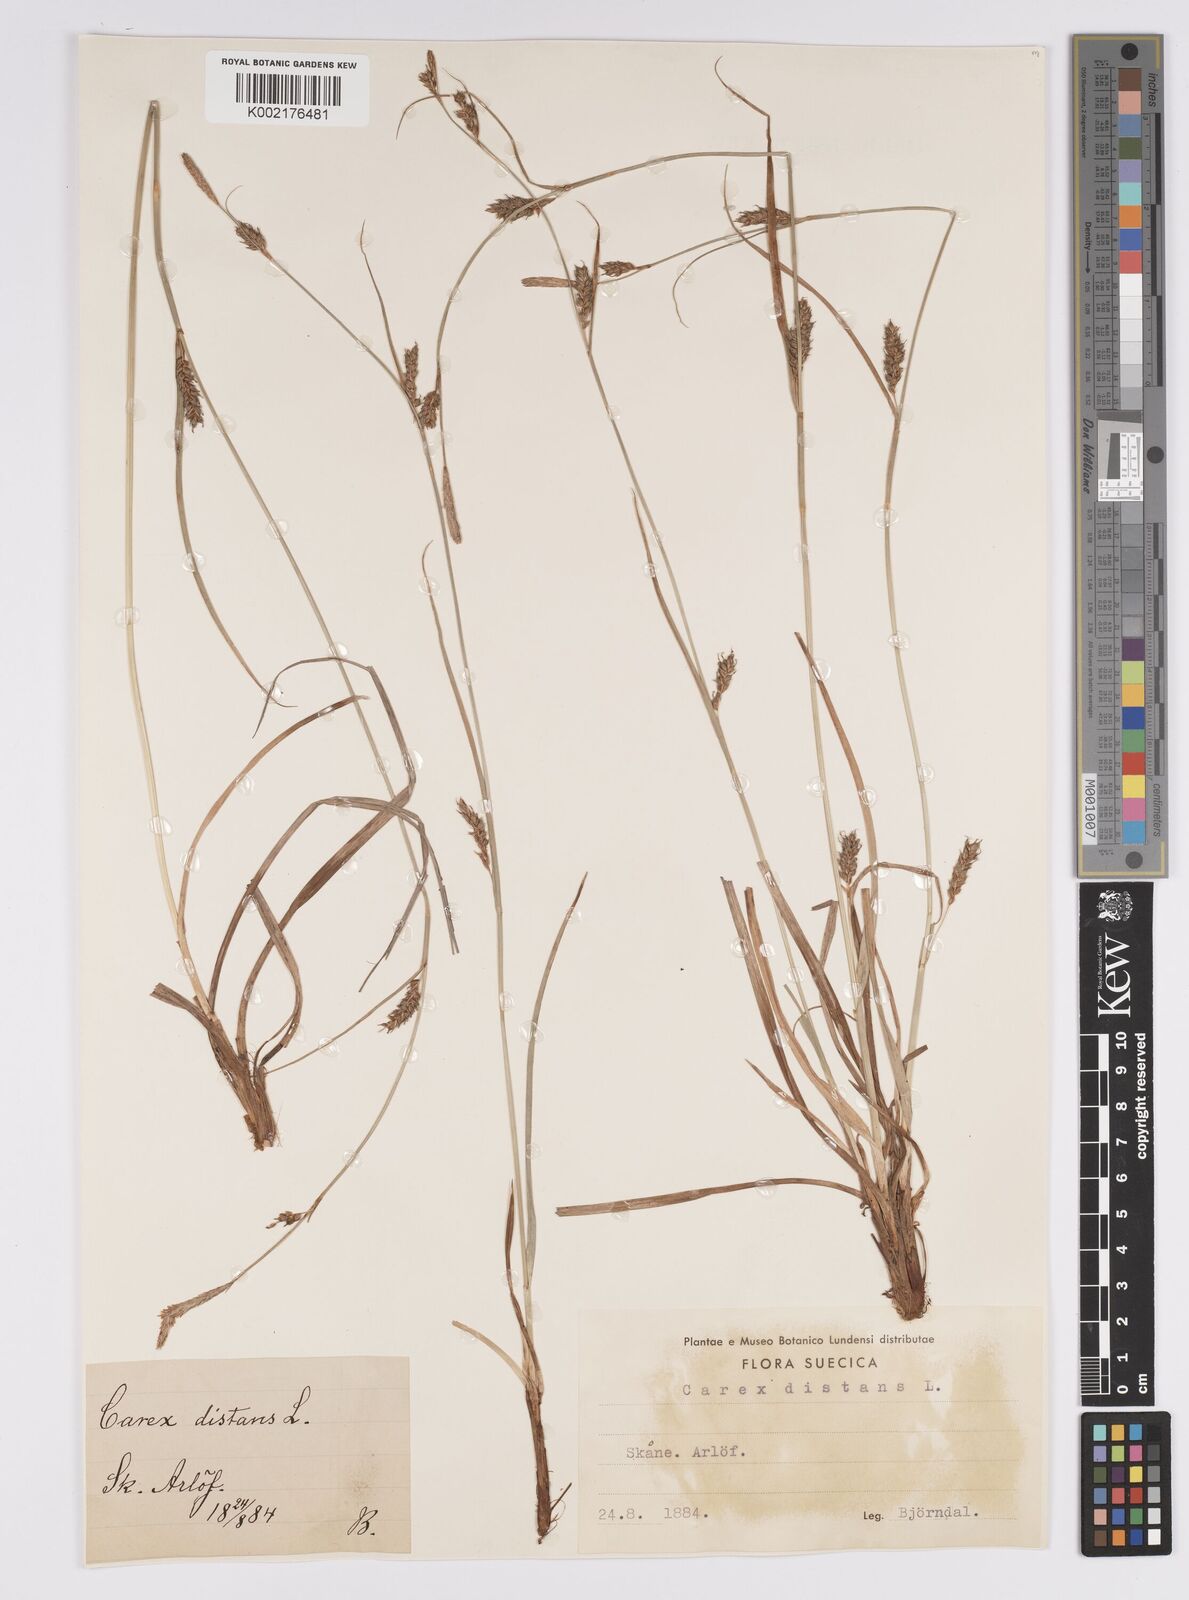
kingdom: Plantae
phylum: Tracheophyta
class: Liliopsida
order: Poales
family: Cyperaceae
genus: Carex
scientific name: Carex distans
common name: Distant sedge
